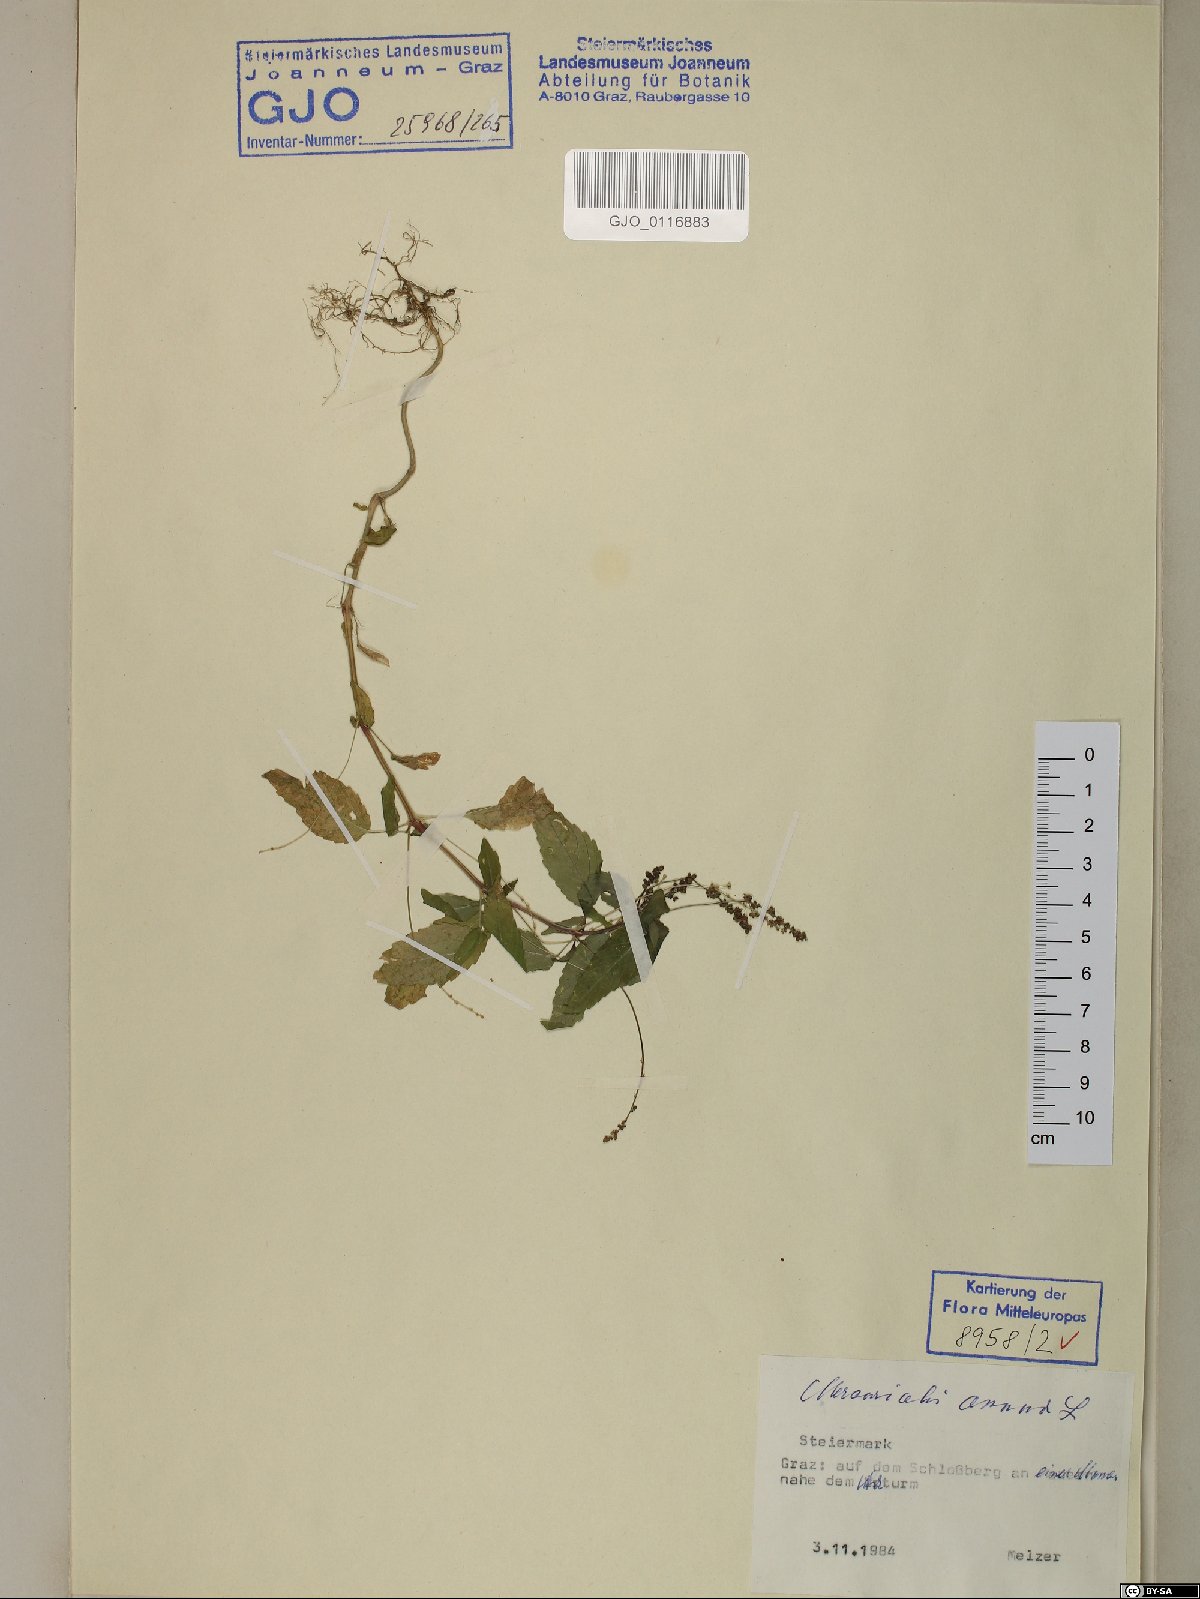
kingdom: Plantae
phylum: Tracheophyta
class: Magnoliopsida
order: Malpighiales
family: Euphorbiaceae
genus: Mercurialis
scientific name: Mercurialis annua
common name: Annual mercury
